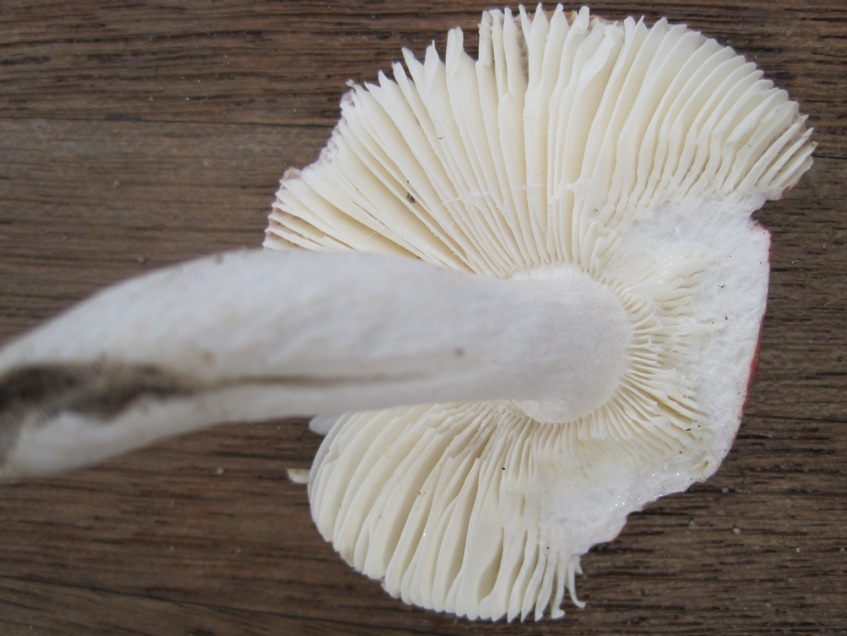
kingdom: Fungi
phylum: Basidiomycota
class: Agaricomycetes
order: Russulales
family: Russulaceae
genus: Russula
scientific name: Russula aurora
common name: rosa skørhat
